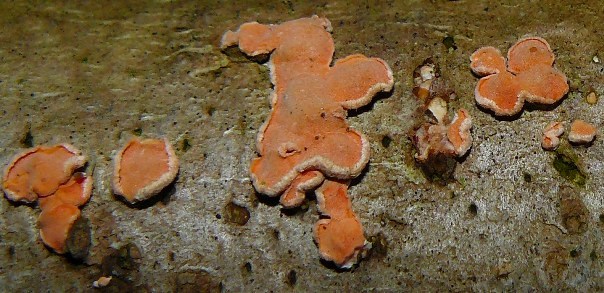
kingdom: Fungi
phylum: Basidiomycota
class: Agaricomycetes
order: Russulales
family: Stereaceae
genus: Aleurodiscus
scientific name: Aleurodiscus amorphus
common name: orange skiveskorpe
